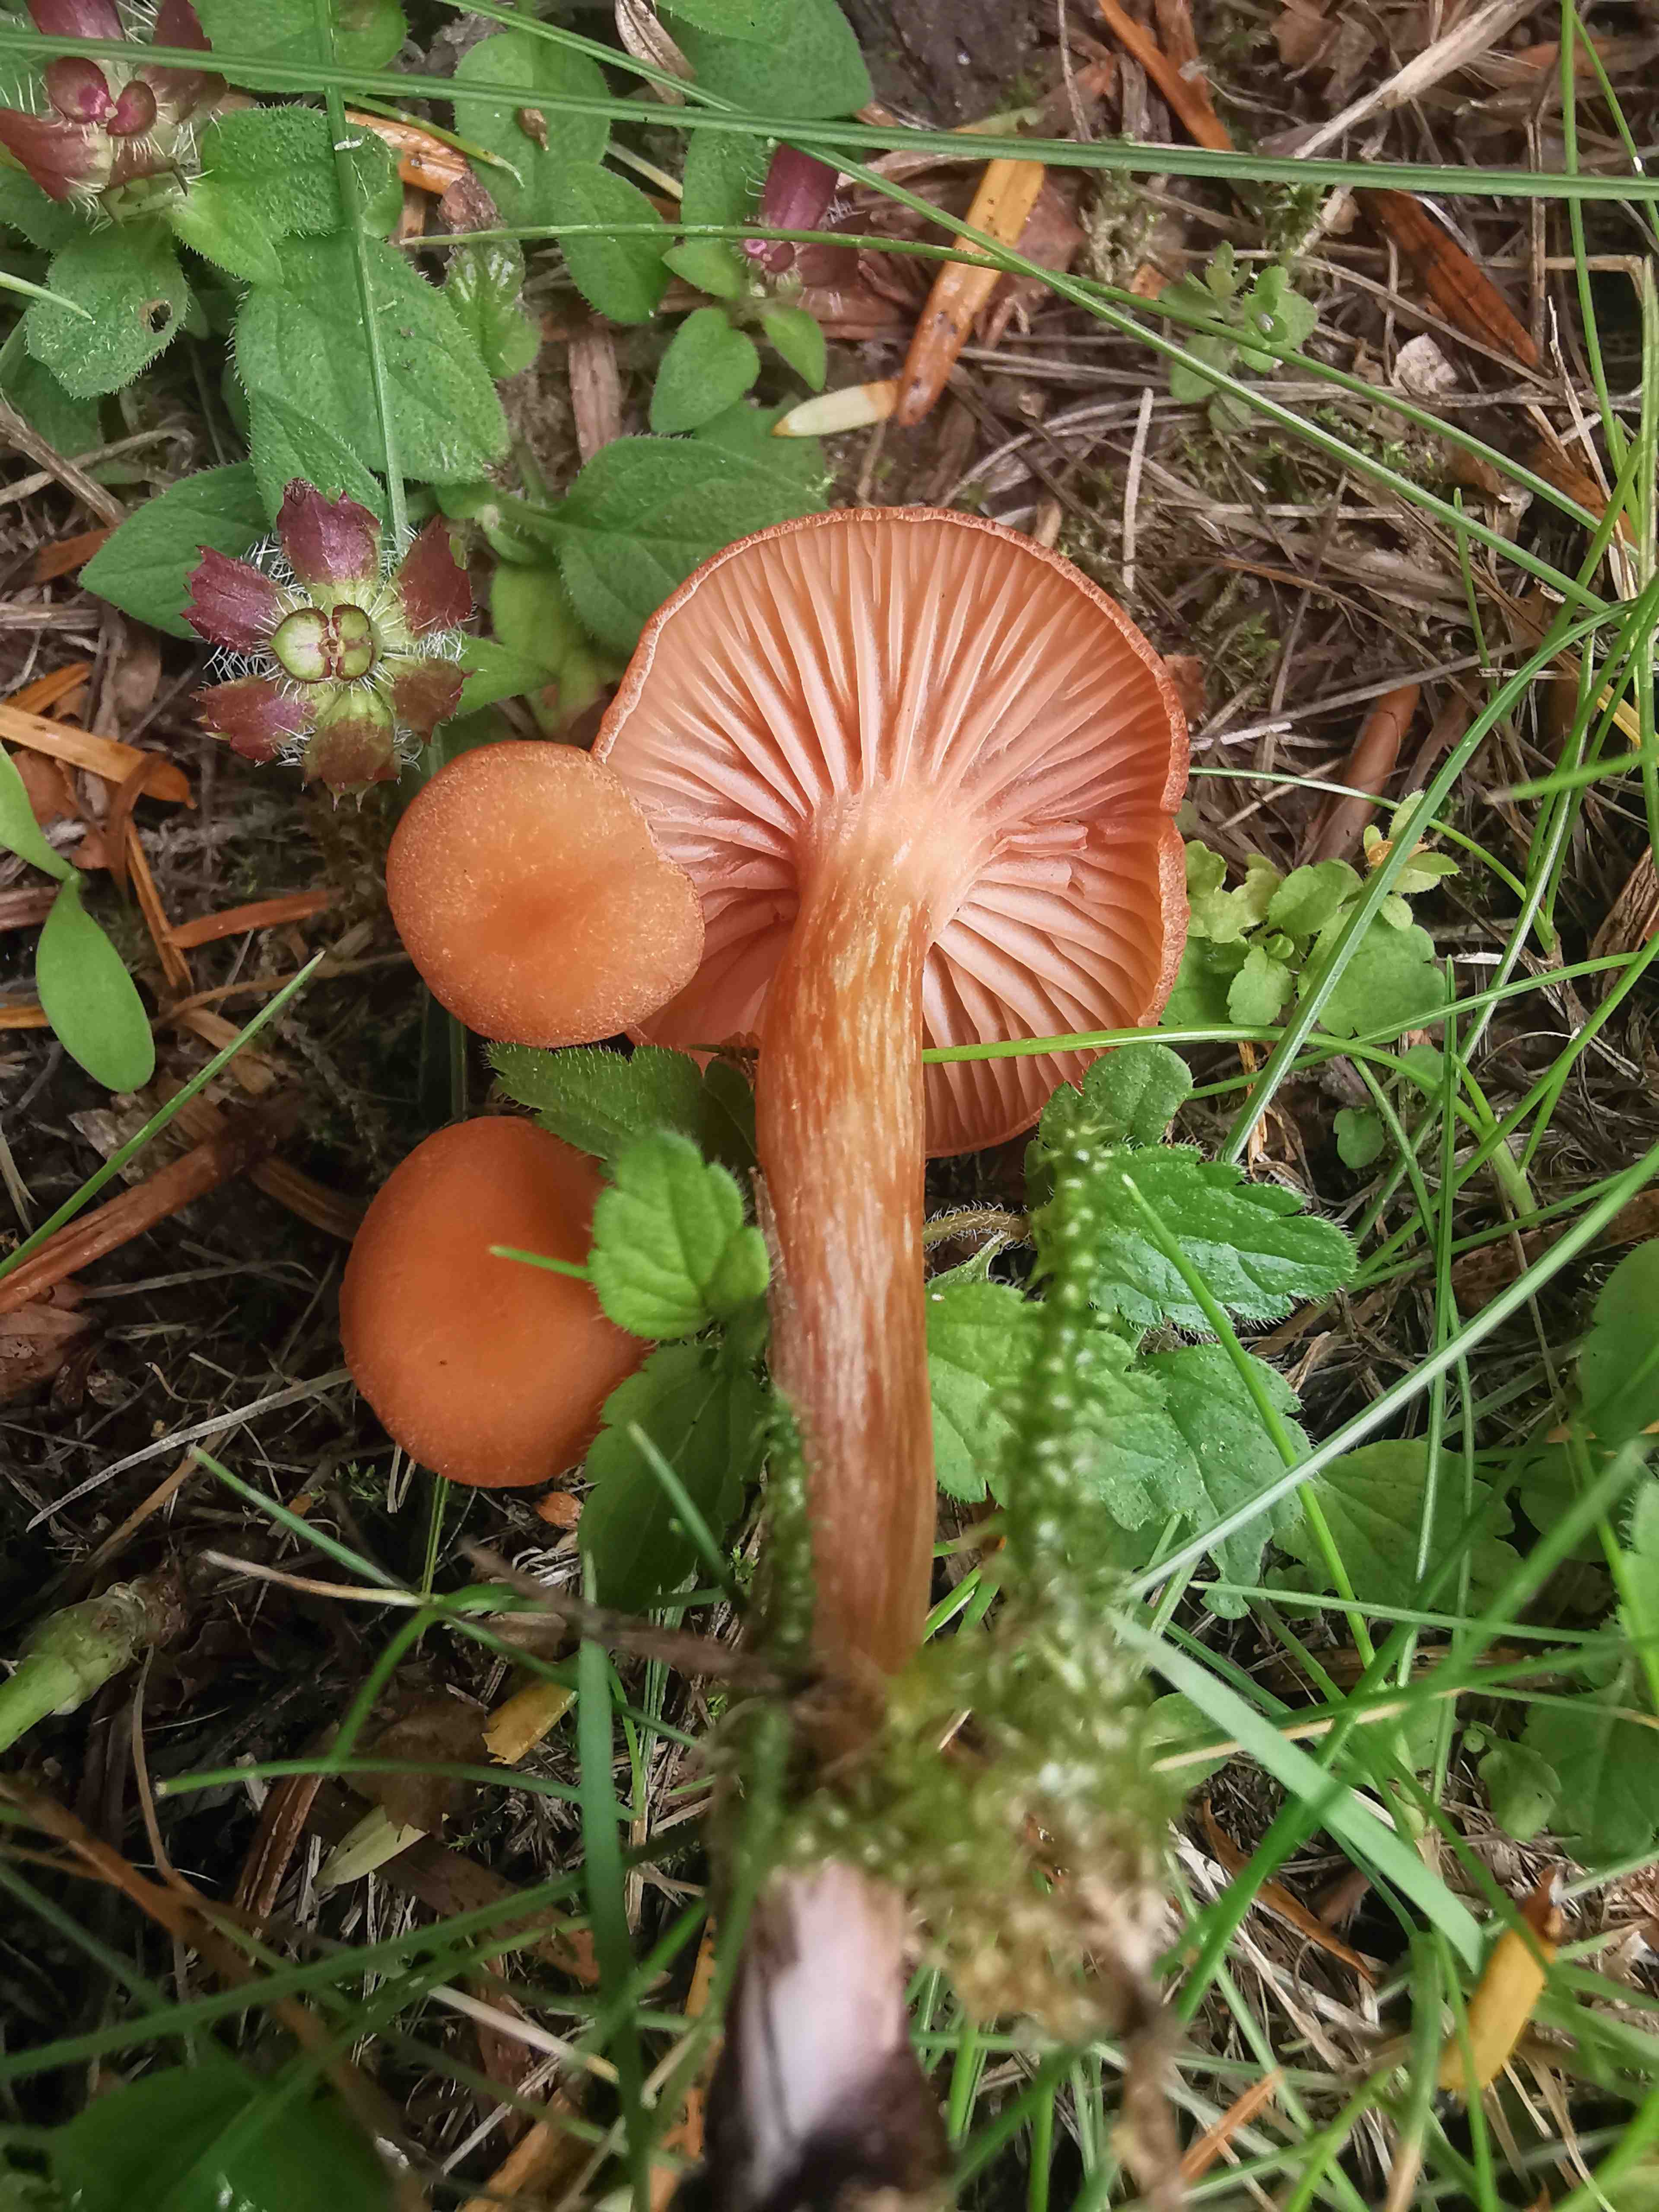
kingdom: Fungi
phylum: Basidiomycota
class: Agaricomycetes
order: Agaricales
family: Hydnangiaceae
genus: Laccaria
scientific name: Laccaria laccata
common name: rød ametysthat
